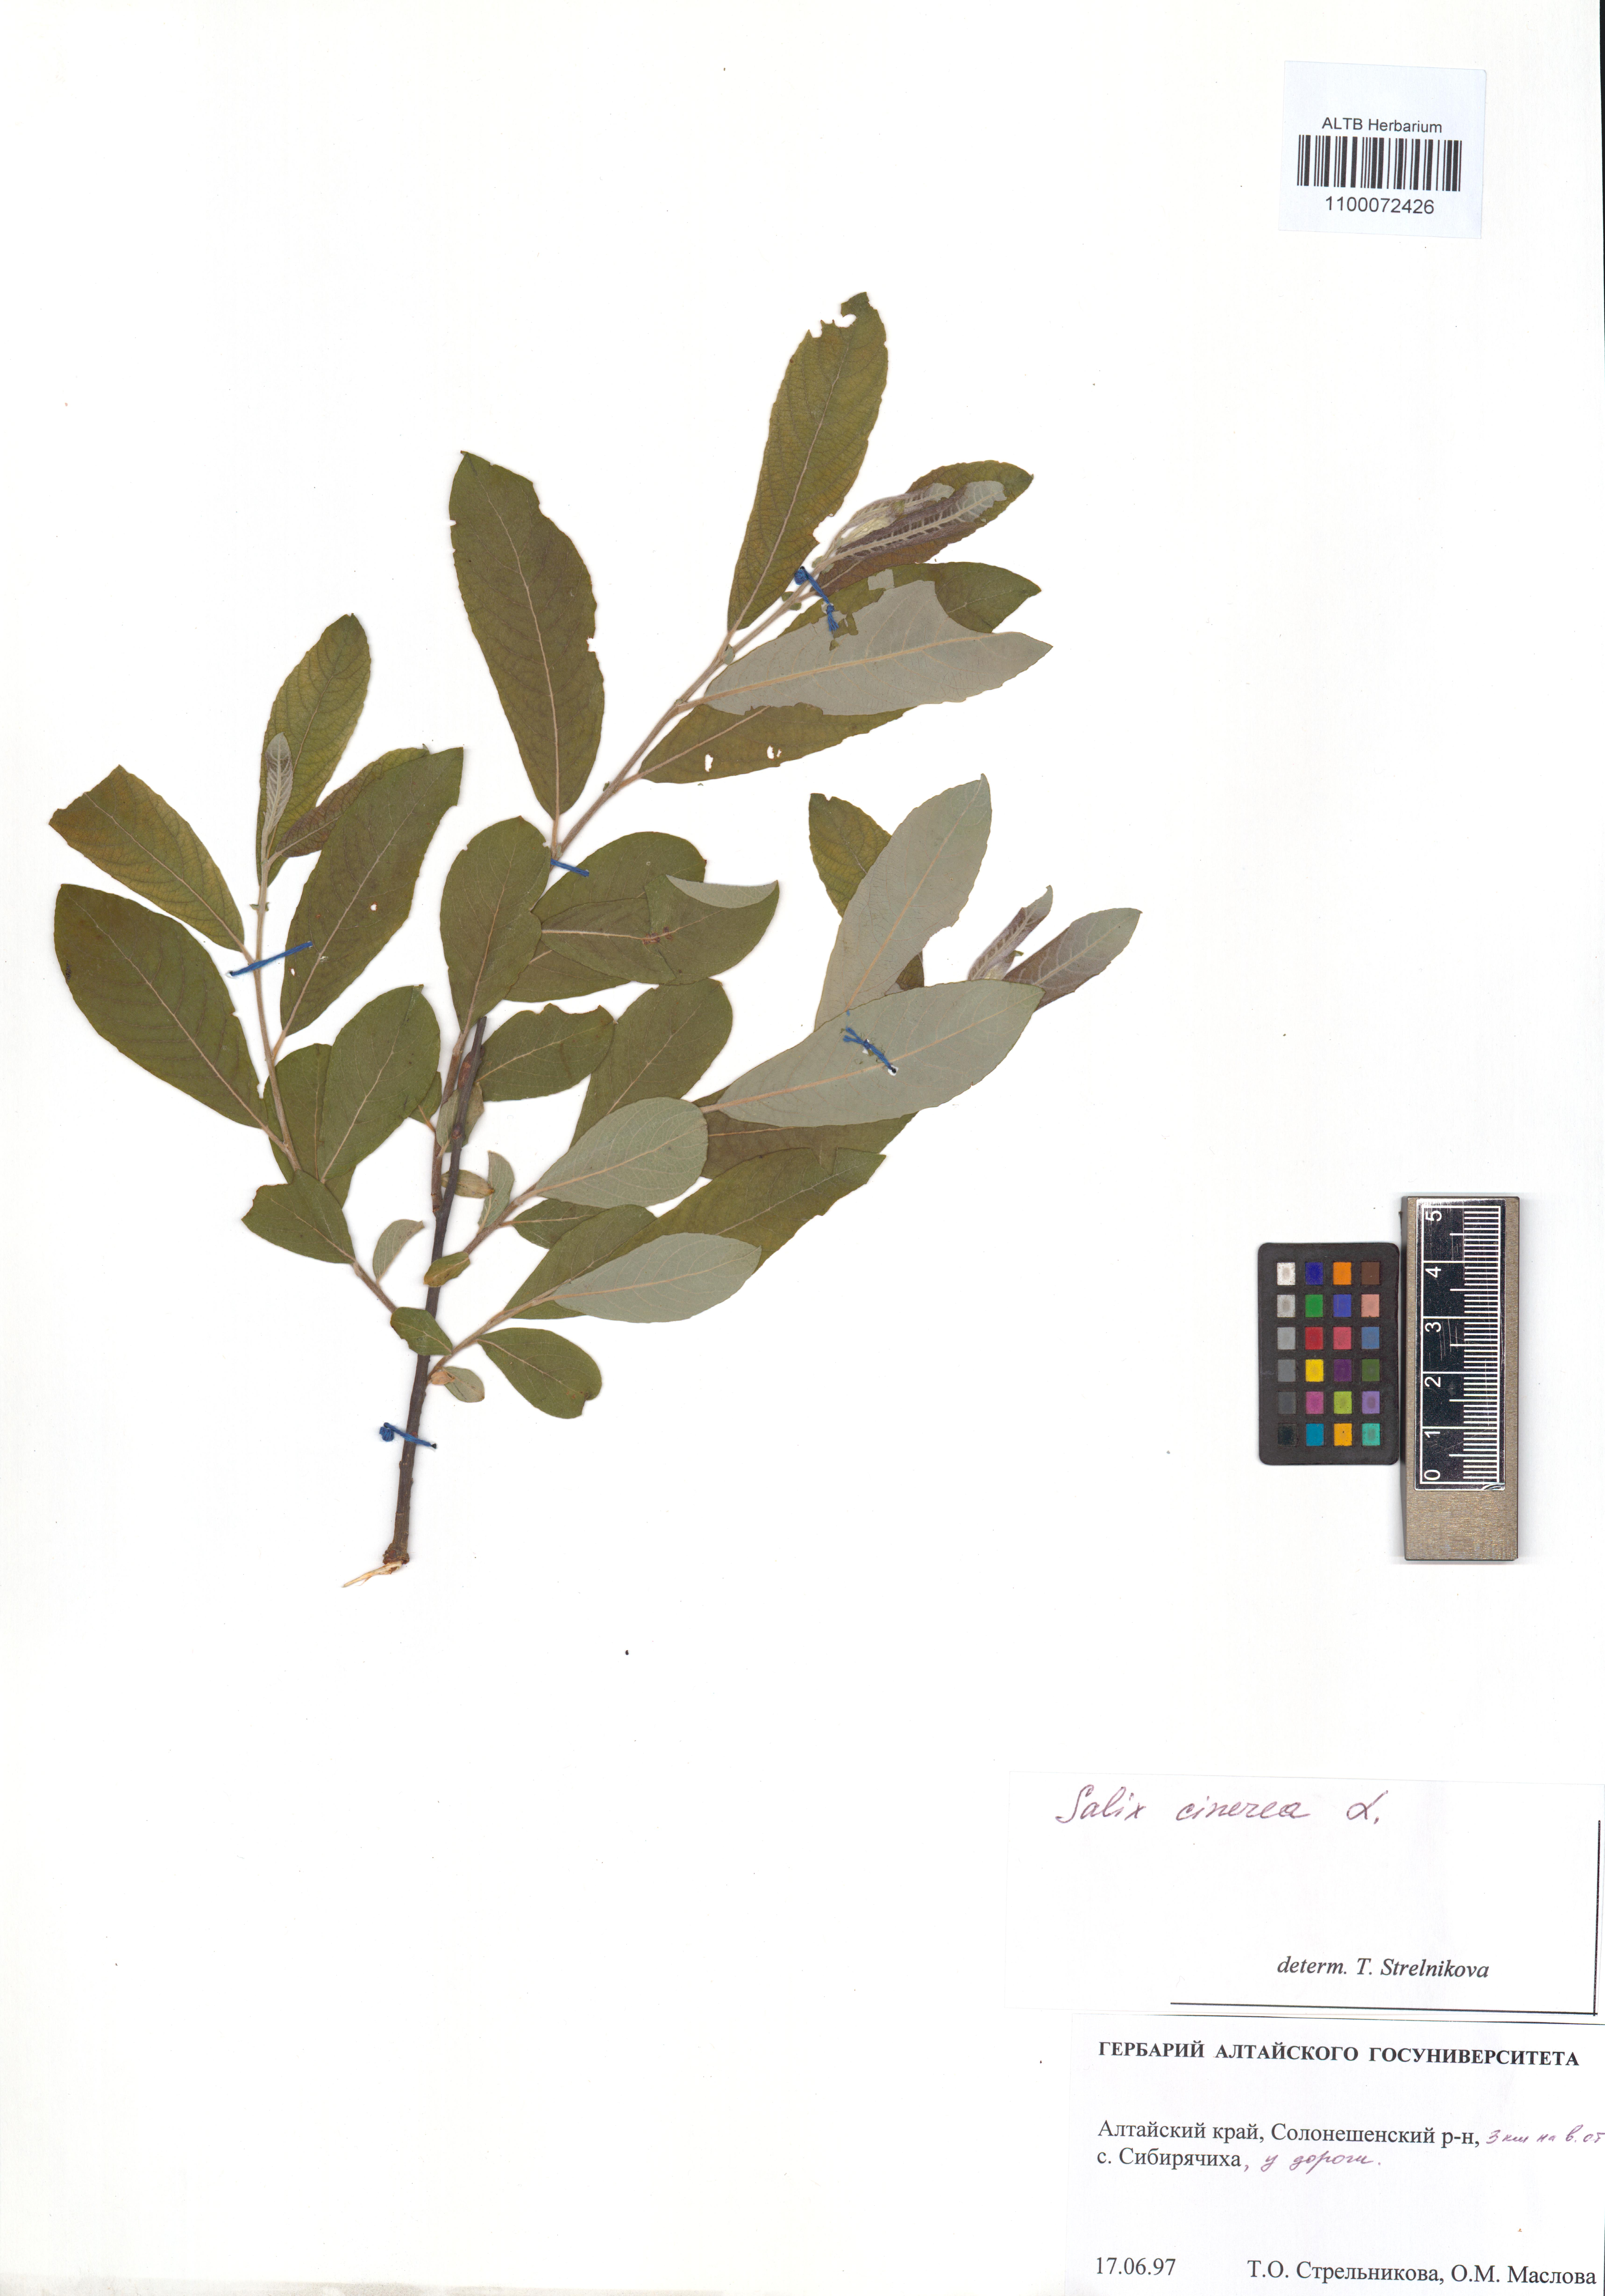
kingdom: Plantae
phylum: Tracheophyta
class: Magnoliopsida
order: Malpighiales
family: Salicaceae
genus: Salix
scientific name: Salix cinerea
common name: Common sallow
